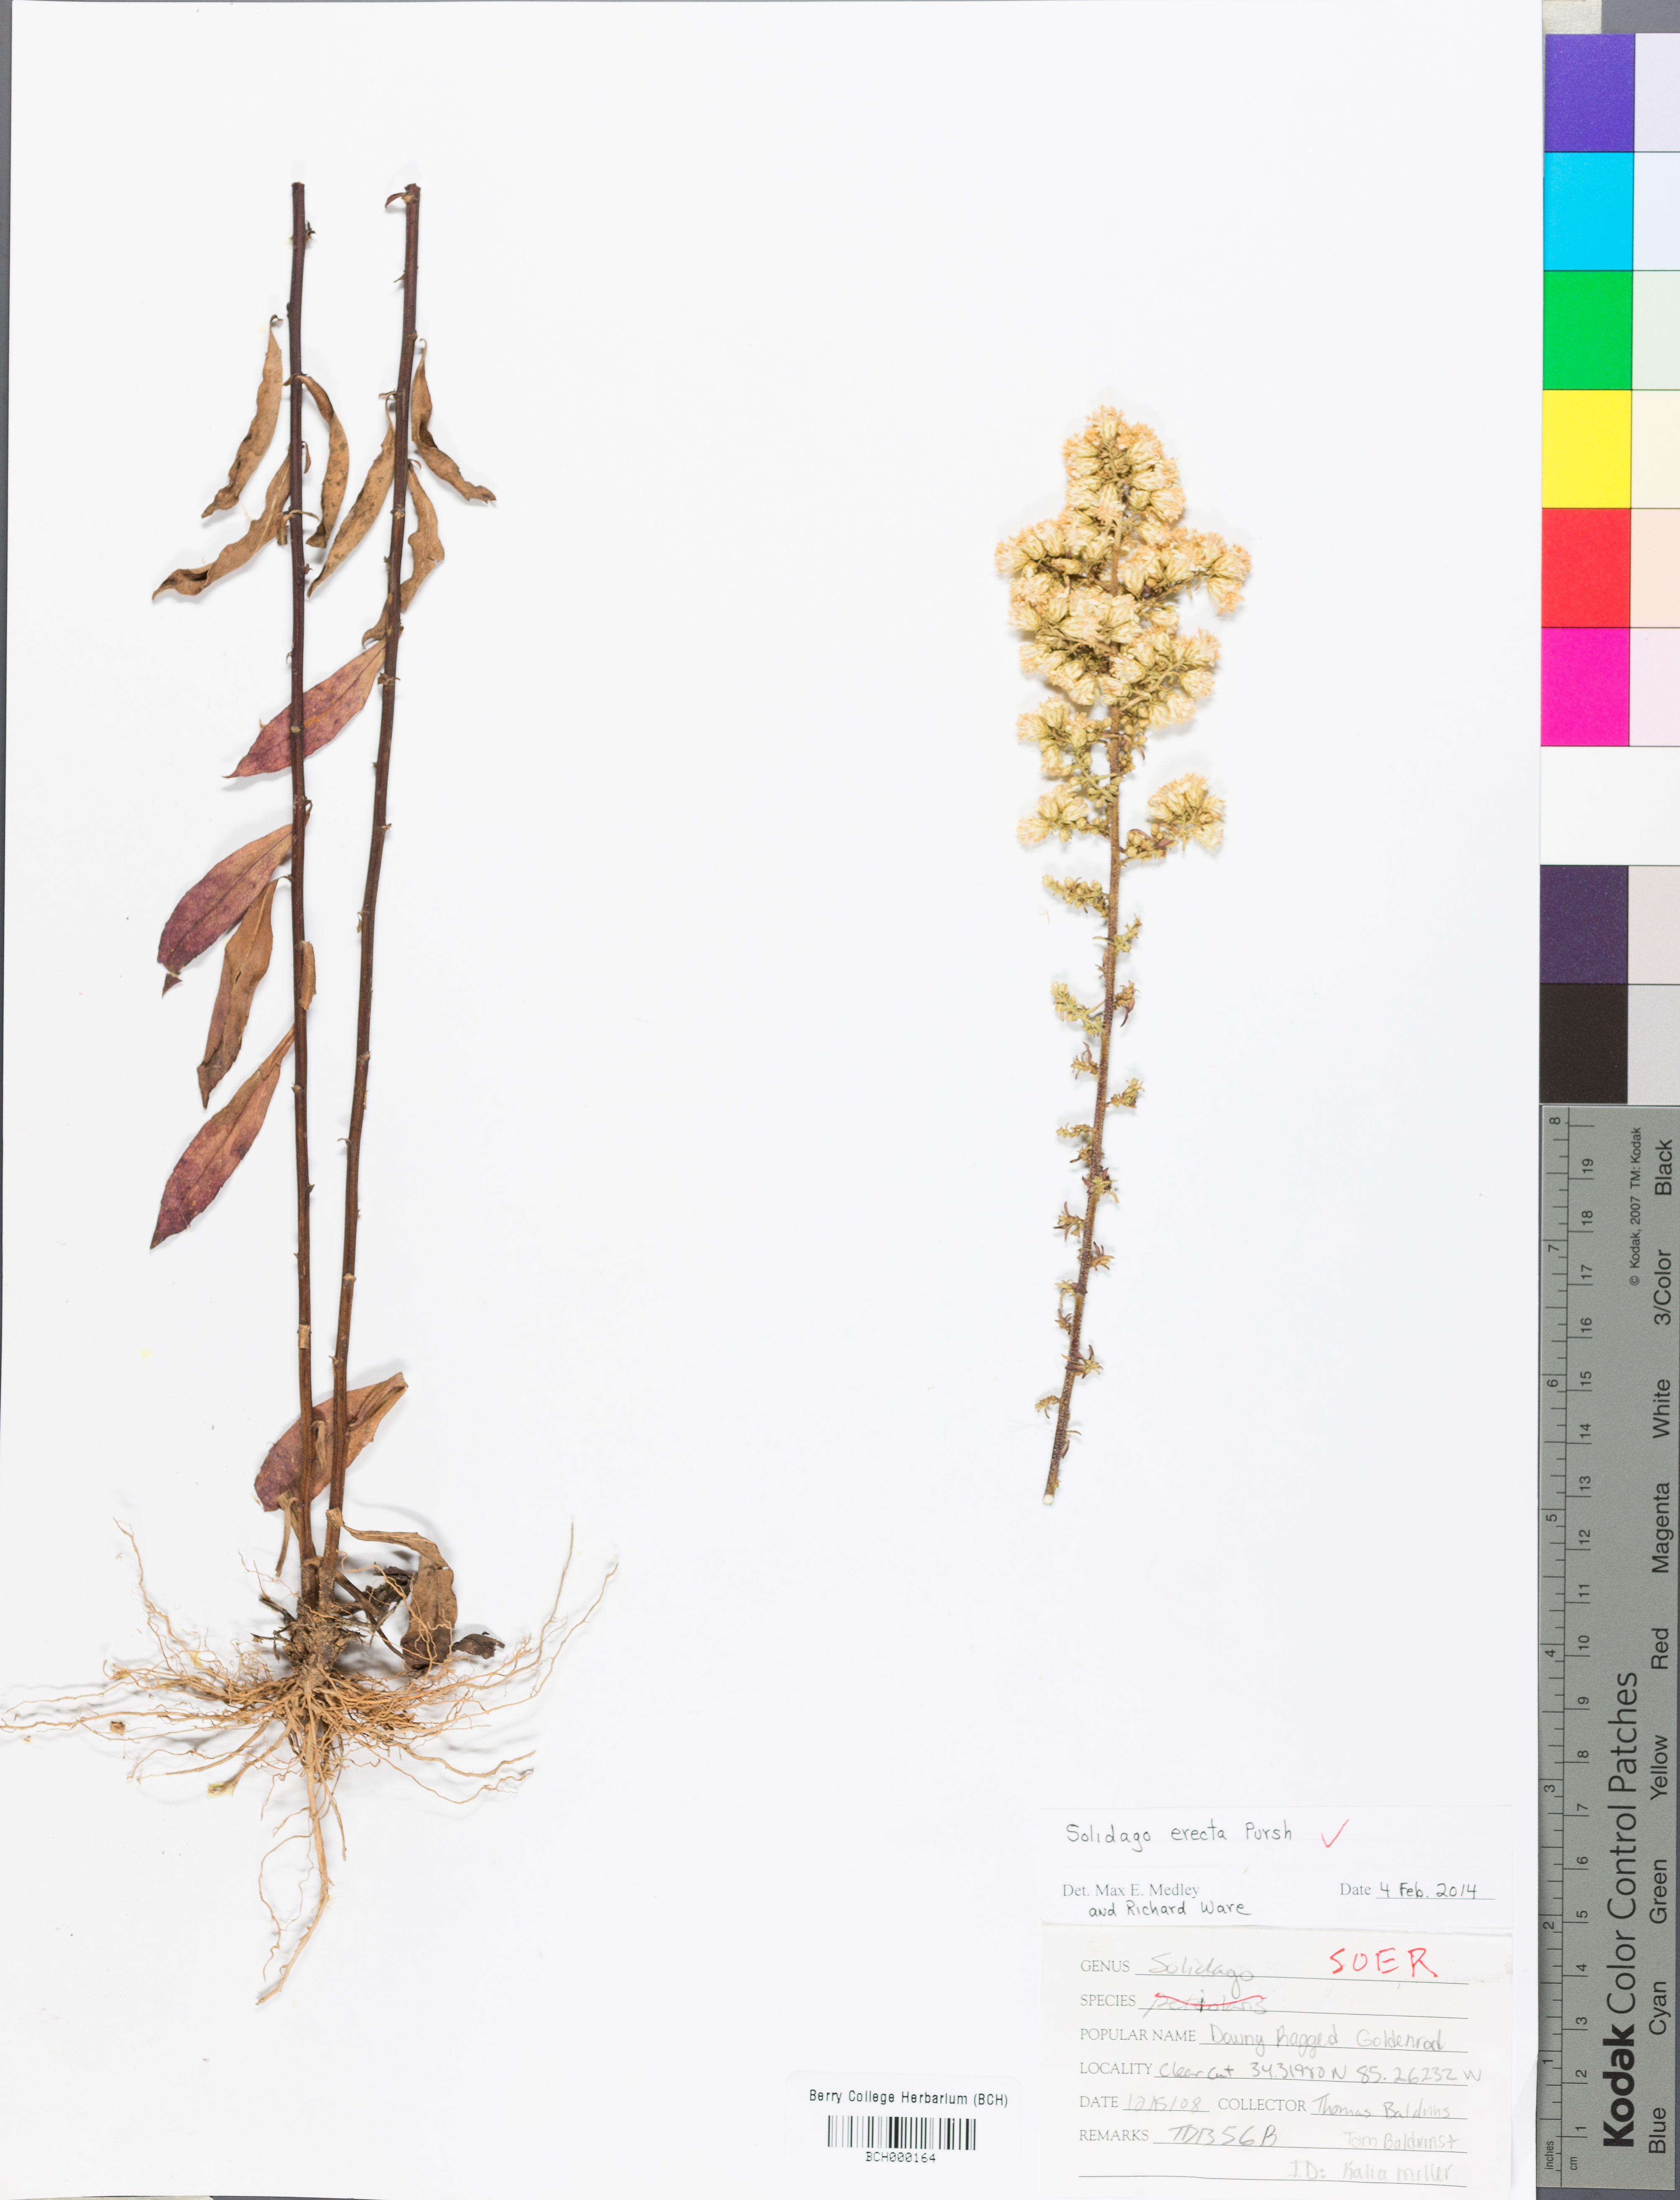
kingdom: Plantae
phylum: Tracheophyta
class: Magnoliopsida
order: Asterales
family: Asteraceae
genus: Solidago
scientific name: Solidago erecta
